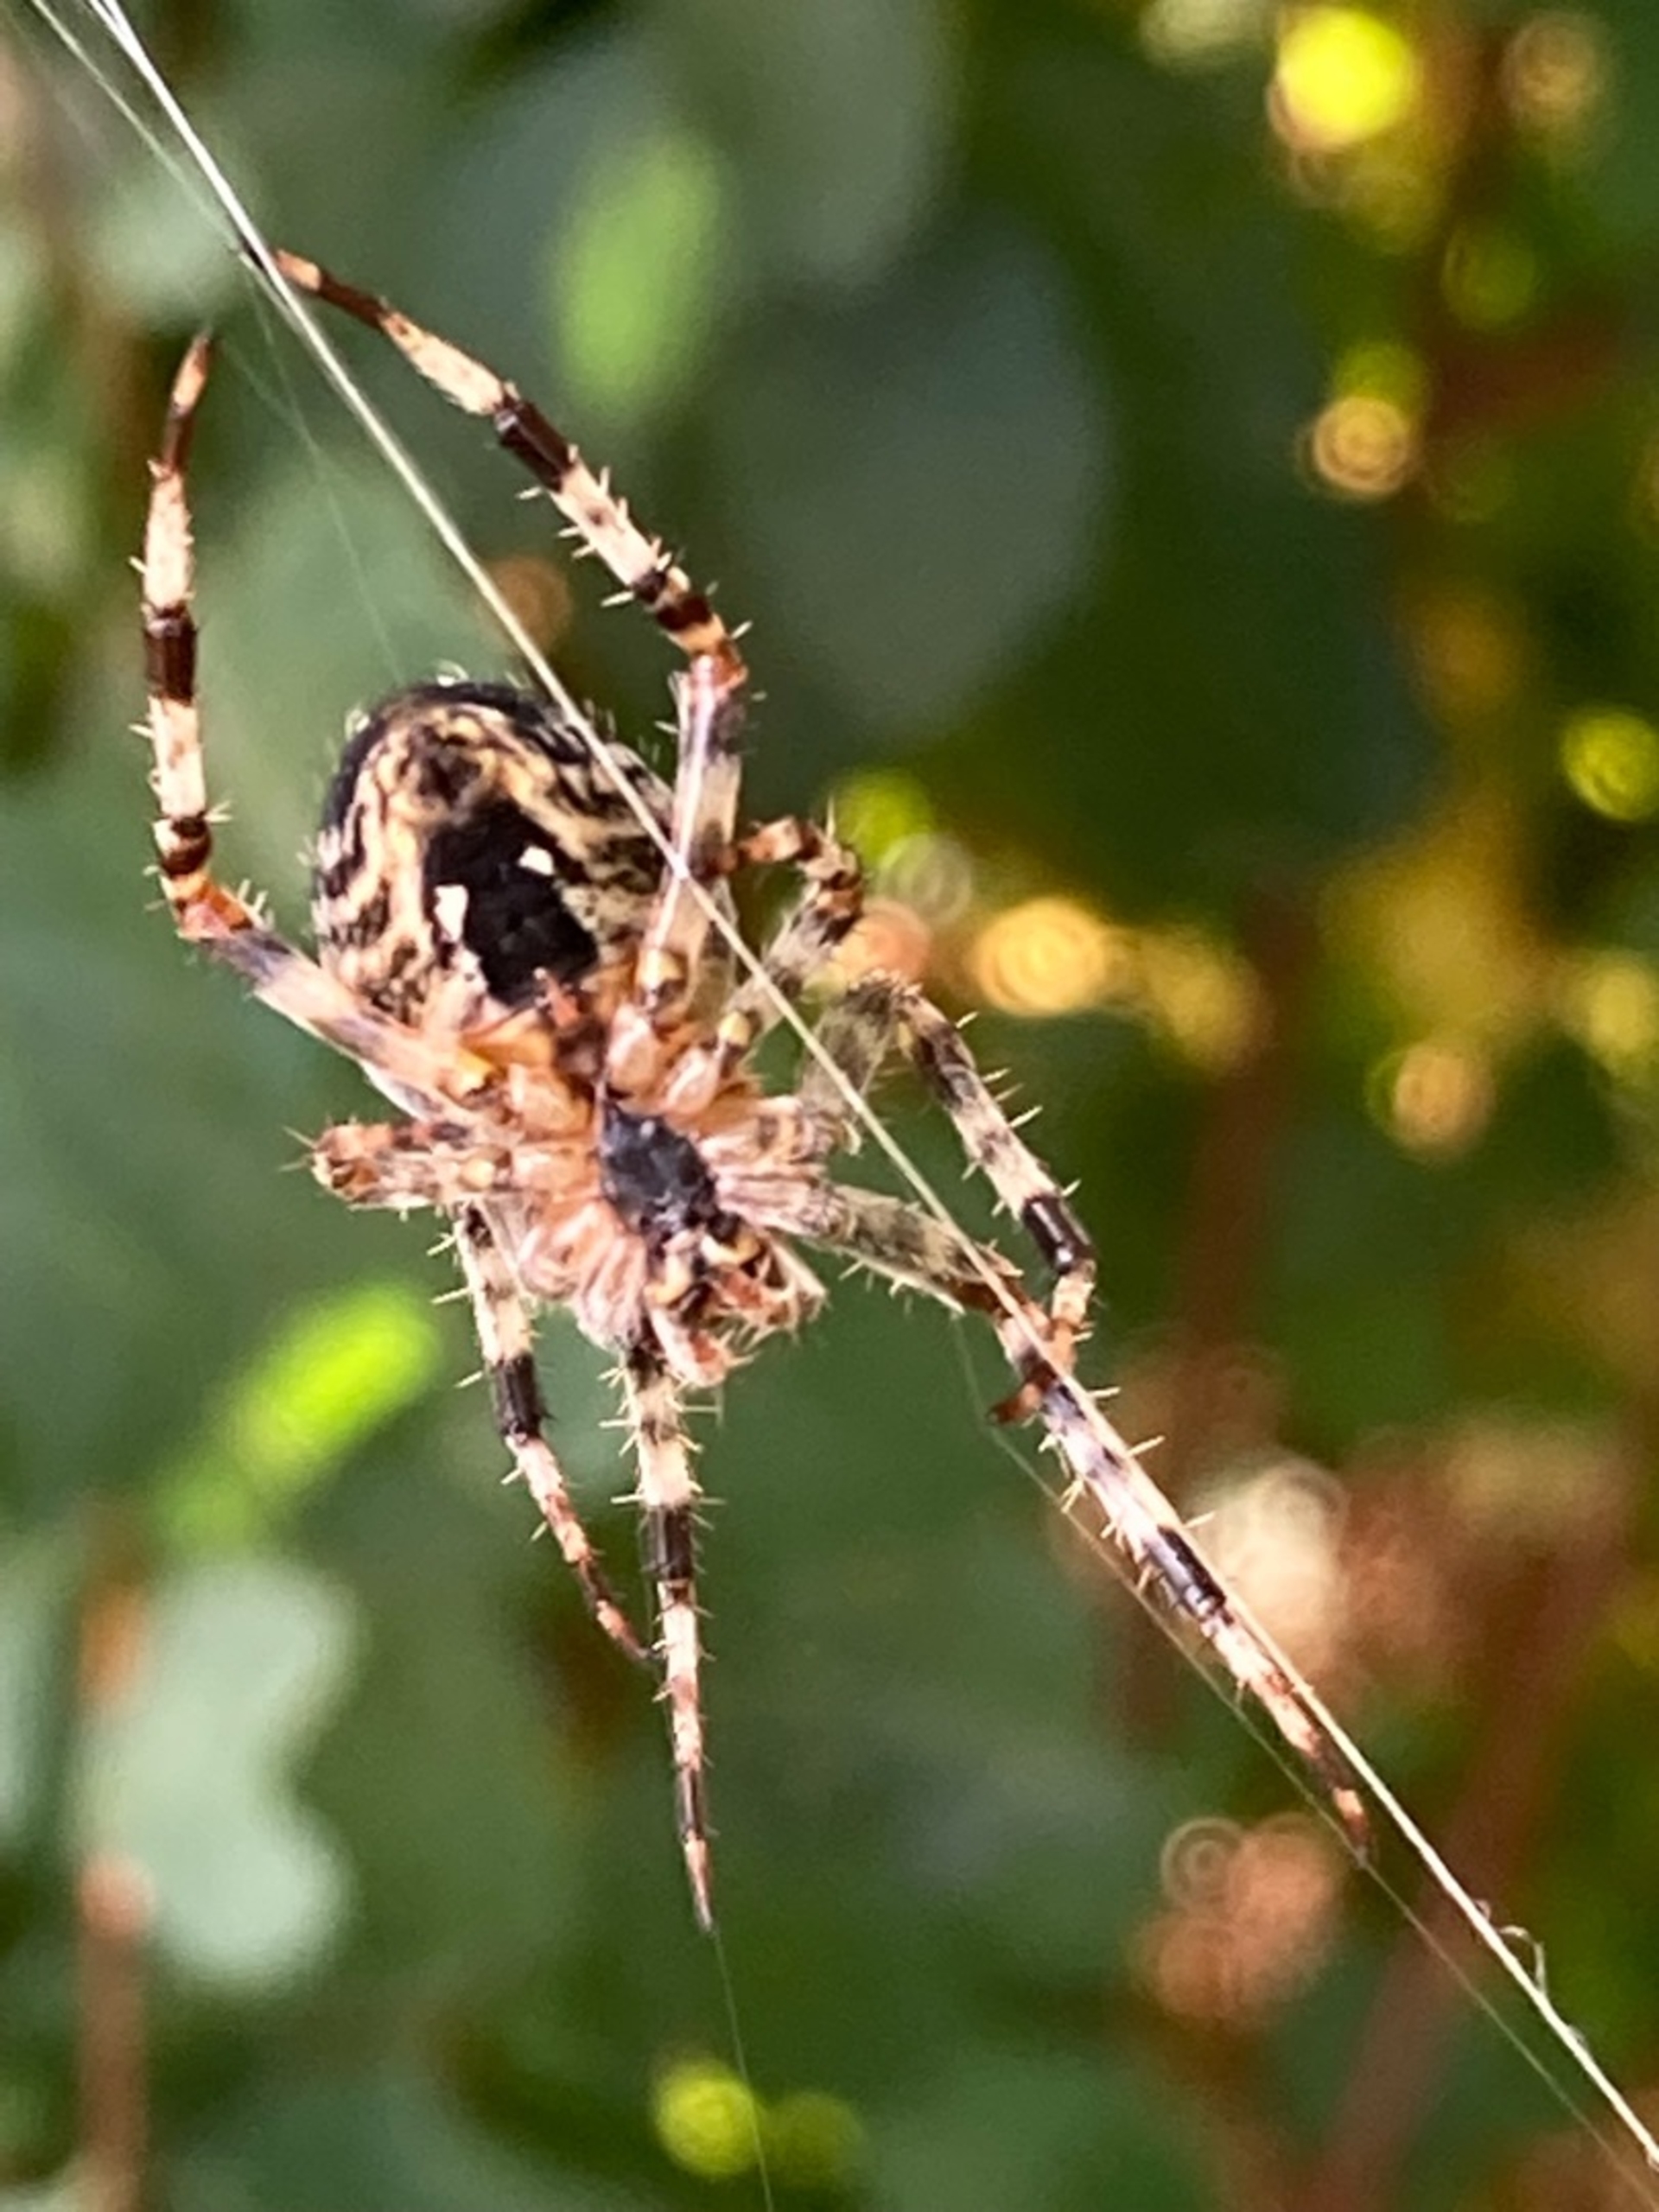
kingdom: Animalia
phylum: Arthropoda
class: Arachnida
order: Araneae
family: Araneidae
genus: Araneus
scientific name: Araneus diadematus
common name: Korsedderkop
